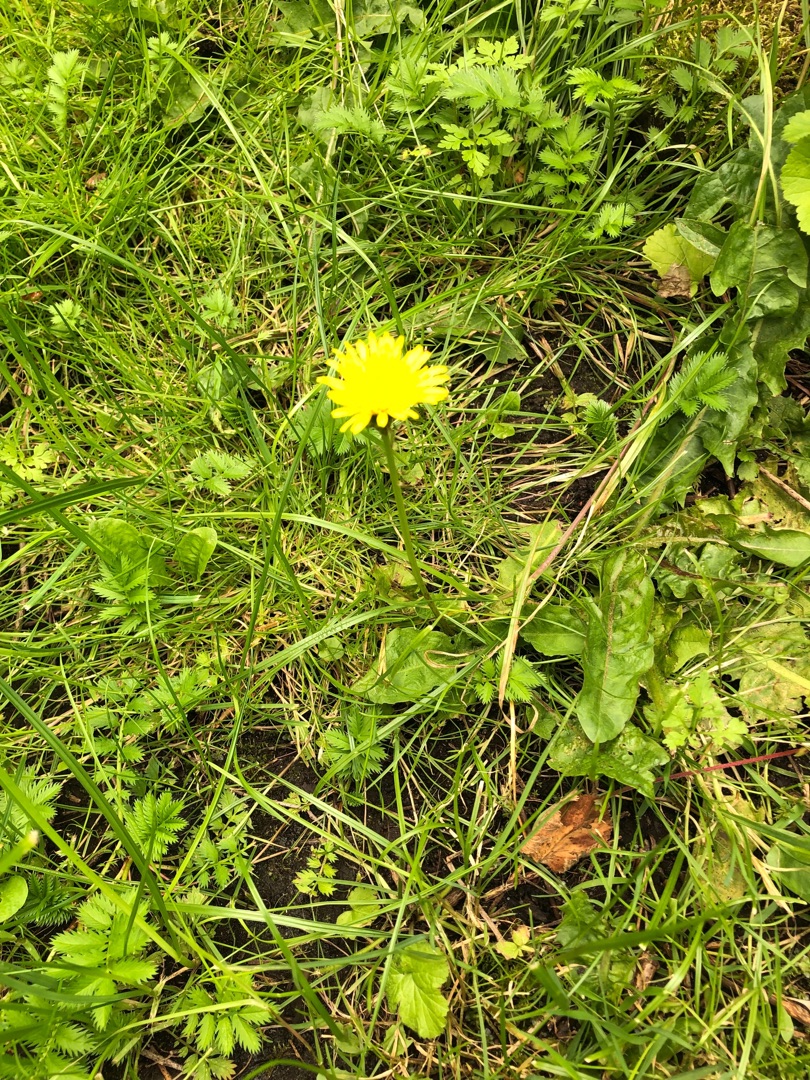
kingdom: Plantae
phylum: Tracheophyta
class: Magnoliopsida
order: Asterales
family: Asteraceae
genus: Taraxacum
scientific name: Taraxacum
